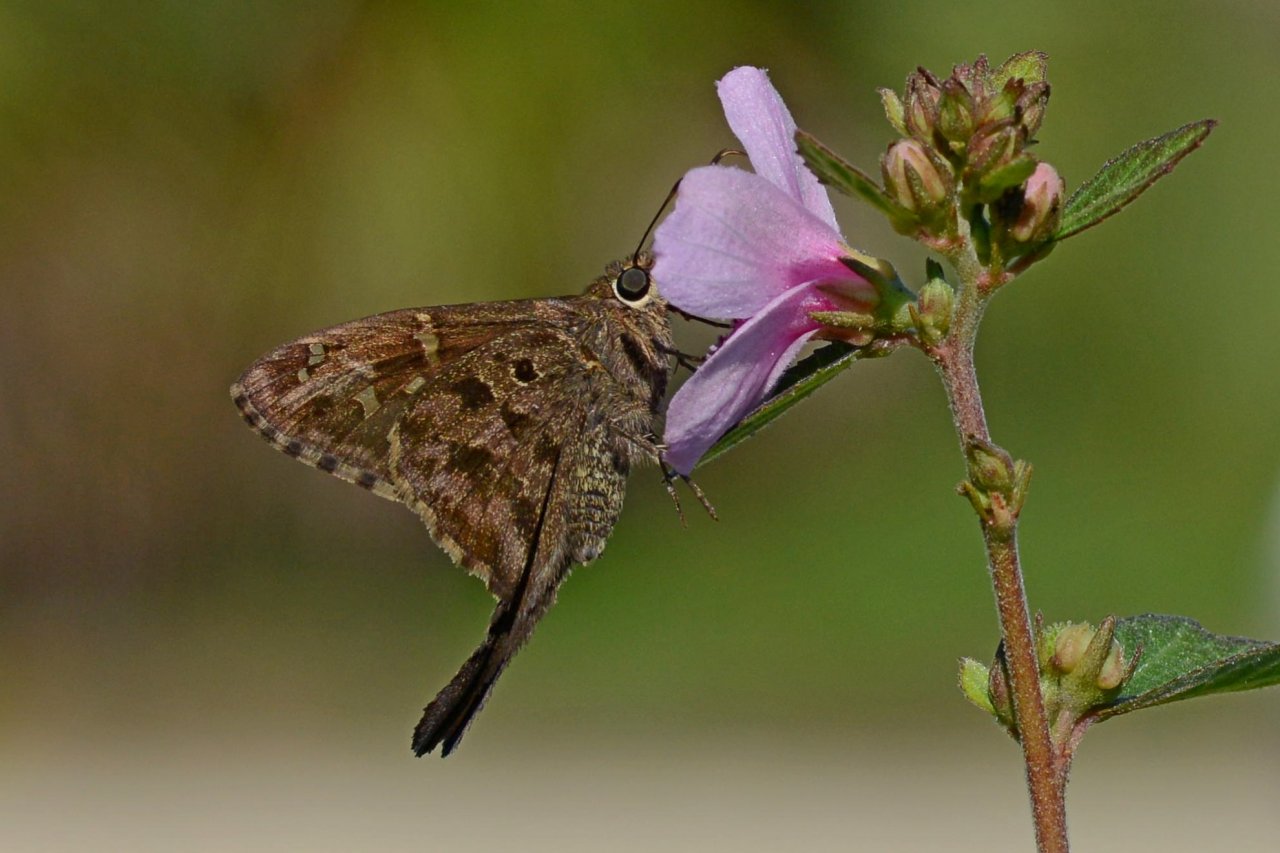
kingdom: Animalia
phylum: Arthropoda
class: Insecta
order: Lepidoptera
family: Hesperiidae
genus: Urbanus
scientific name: Urbanus dorantes
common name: Dorantes Longtail
